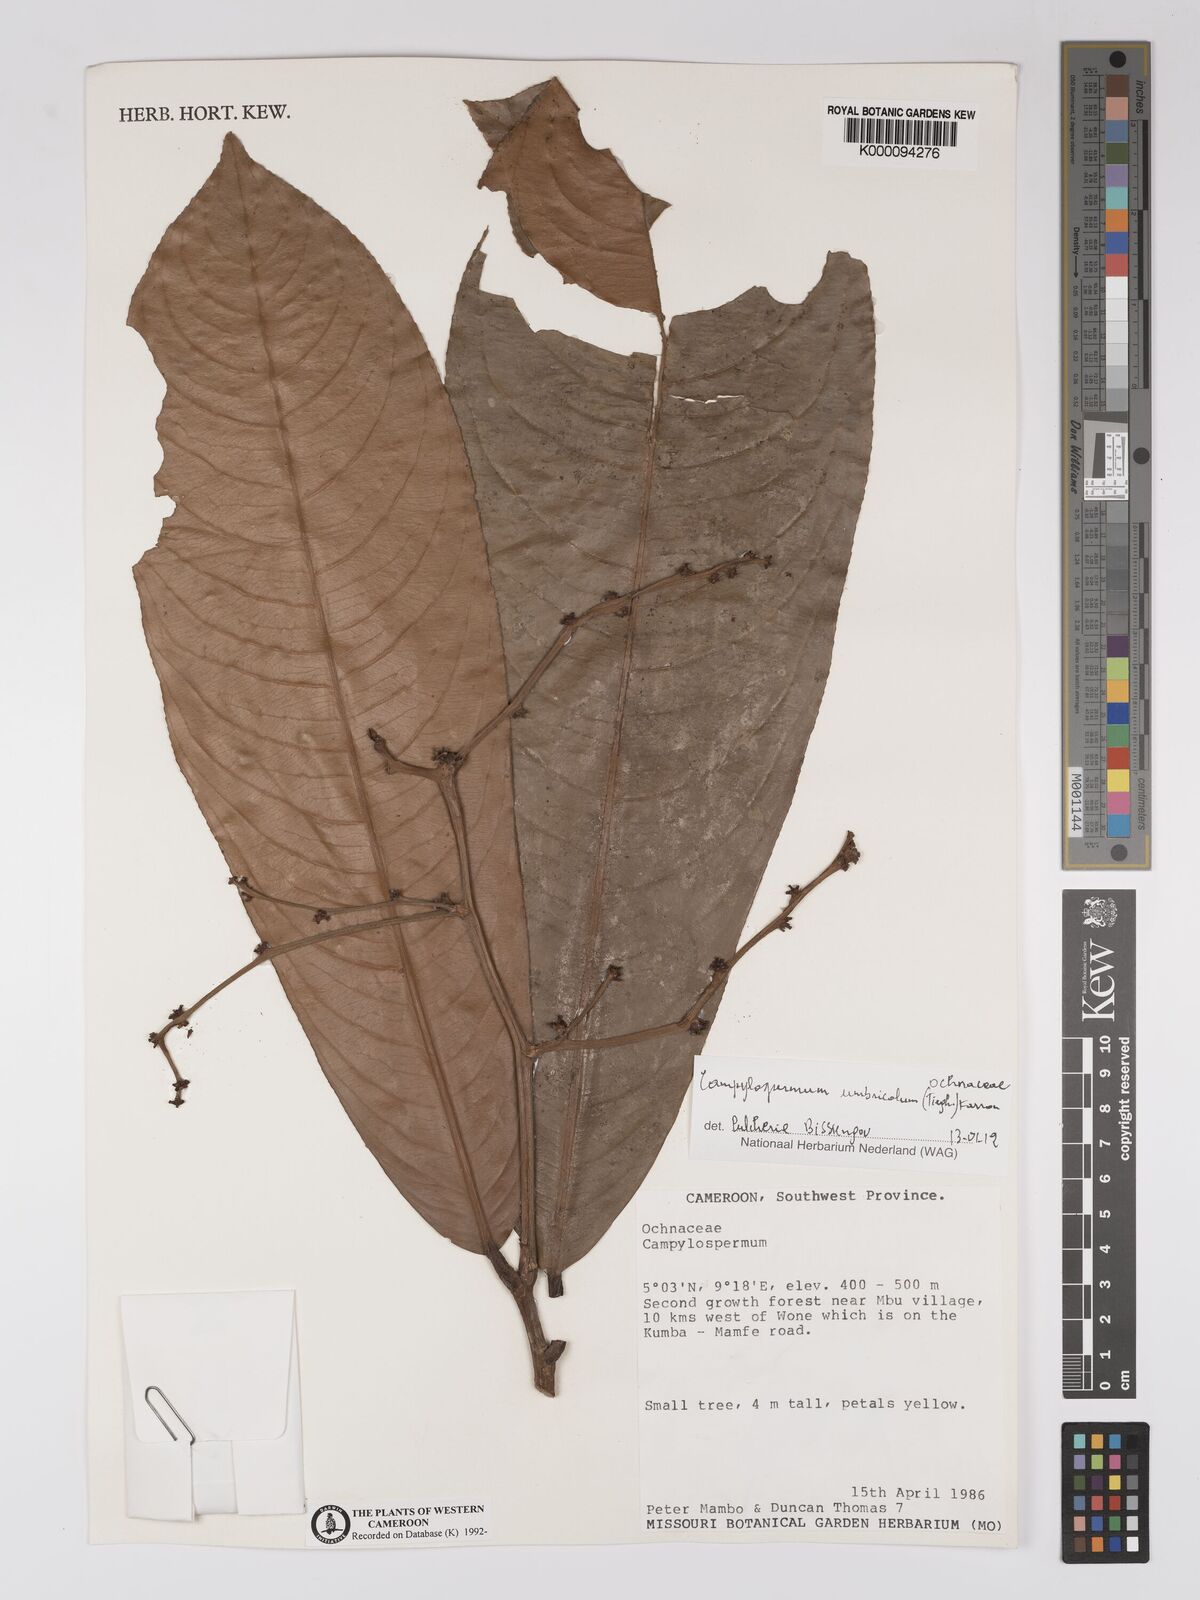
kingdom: Plantae
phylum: Tracheophyta
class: Magnoliopsida
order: Malpighiales
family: Ochnaceae
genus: Campylospermum
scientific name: Campylospermum
